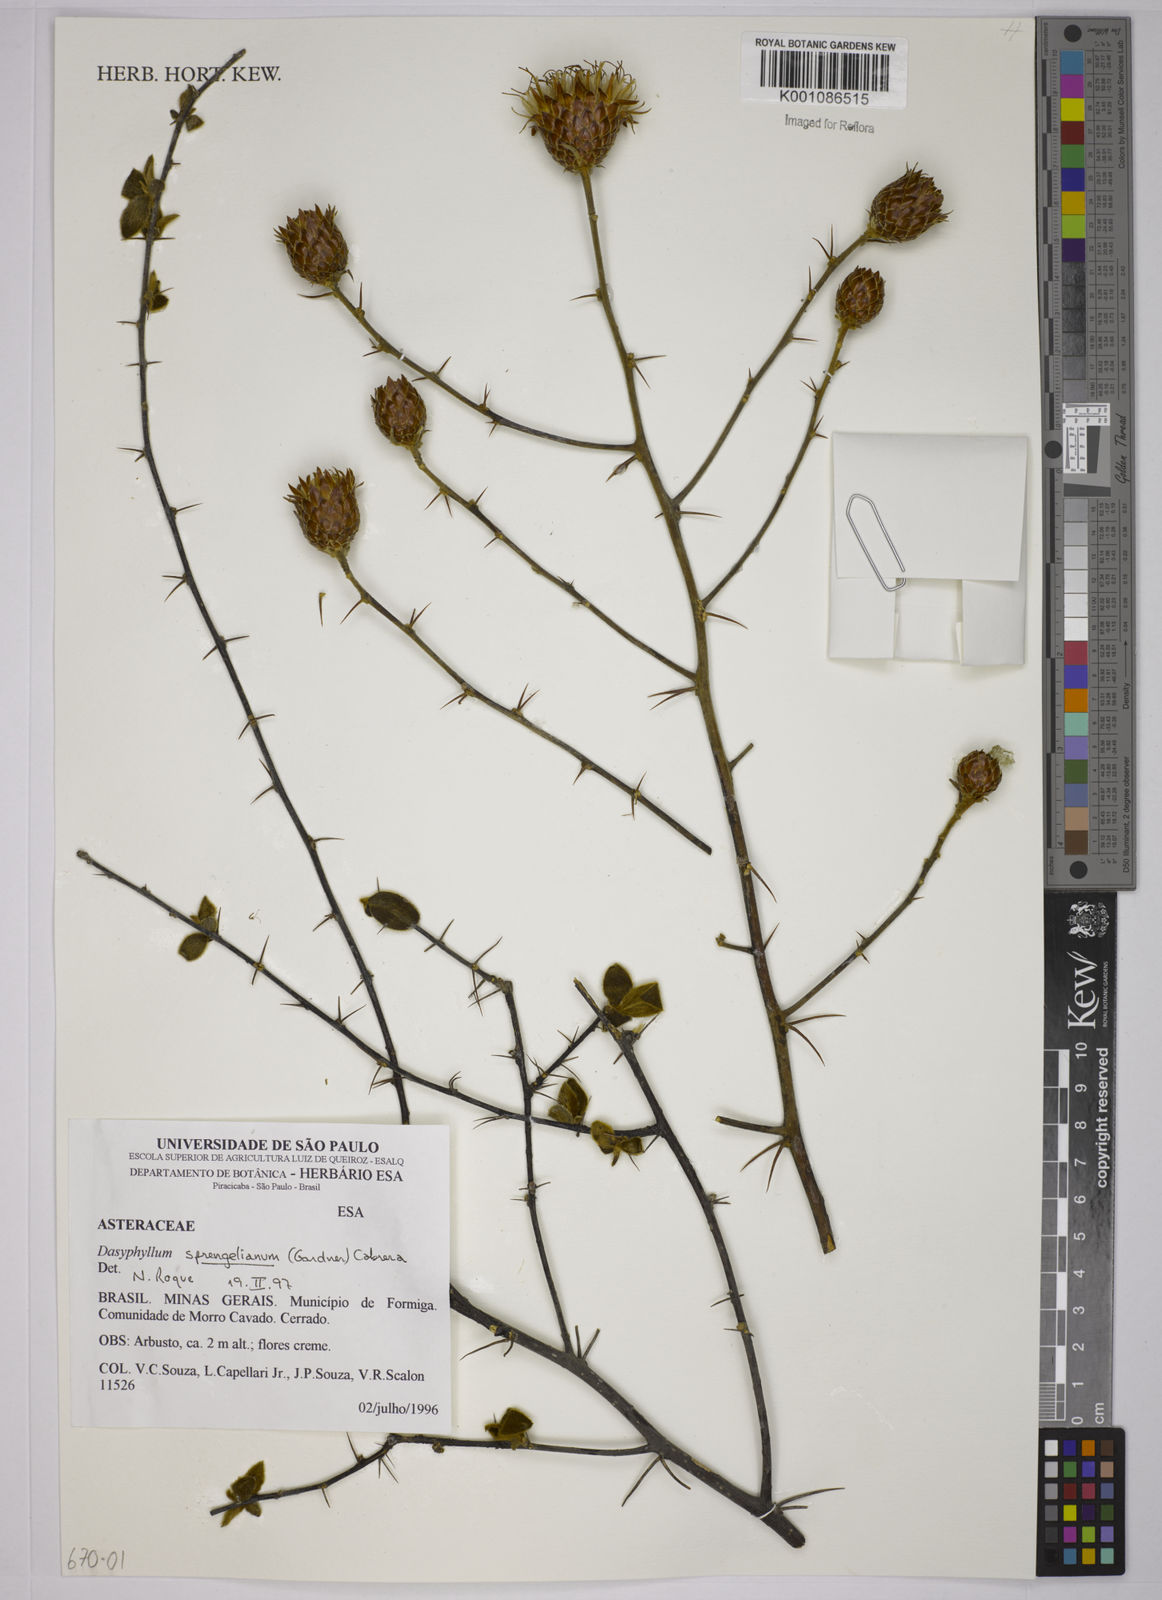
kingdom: Plantae
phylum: Tracheophyta
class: Magnoliopsida
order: Asterales
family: Asteraceae
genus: Dasyphyllum
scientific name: Dasyphyllum sprengelianum
